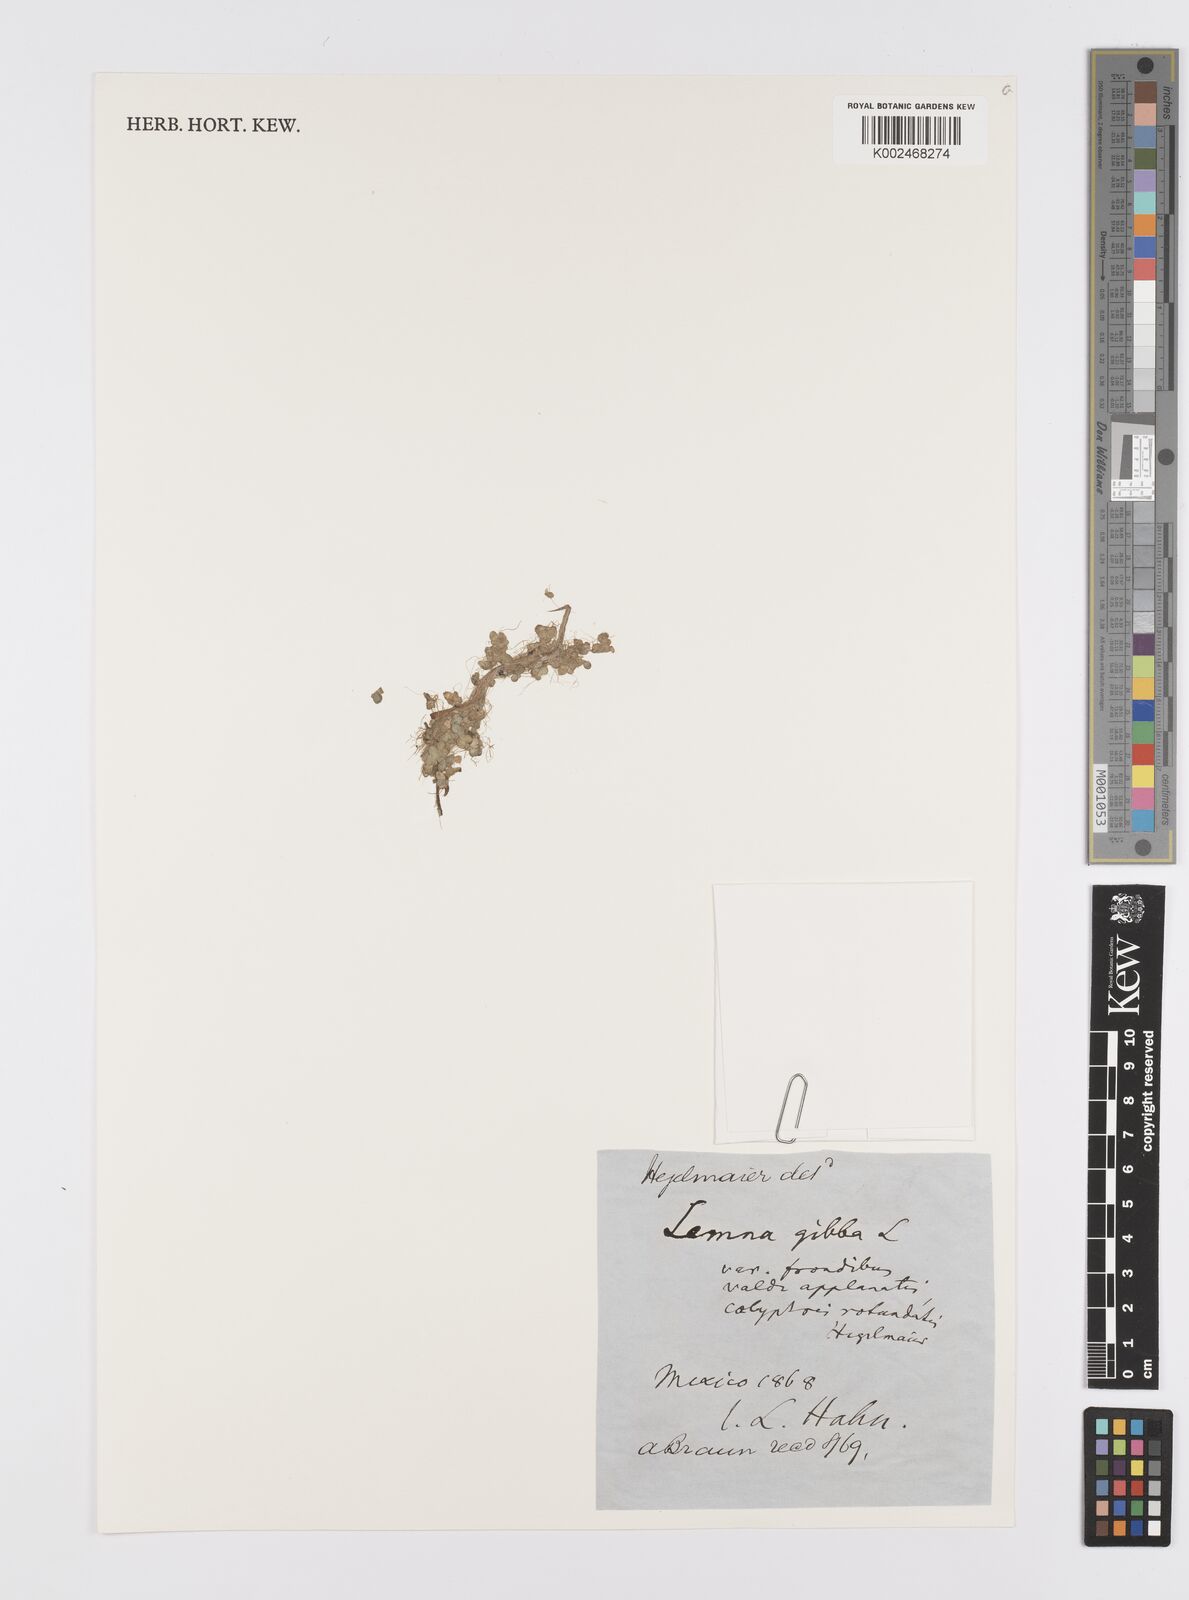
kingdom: Plantae
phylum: Tracheophyta
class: Liliopsida
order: Alismatales
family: Araceae
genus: Lemna
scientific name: Lemna gibba
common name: Fat duckweed
